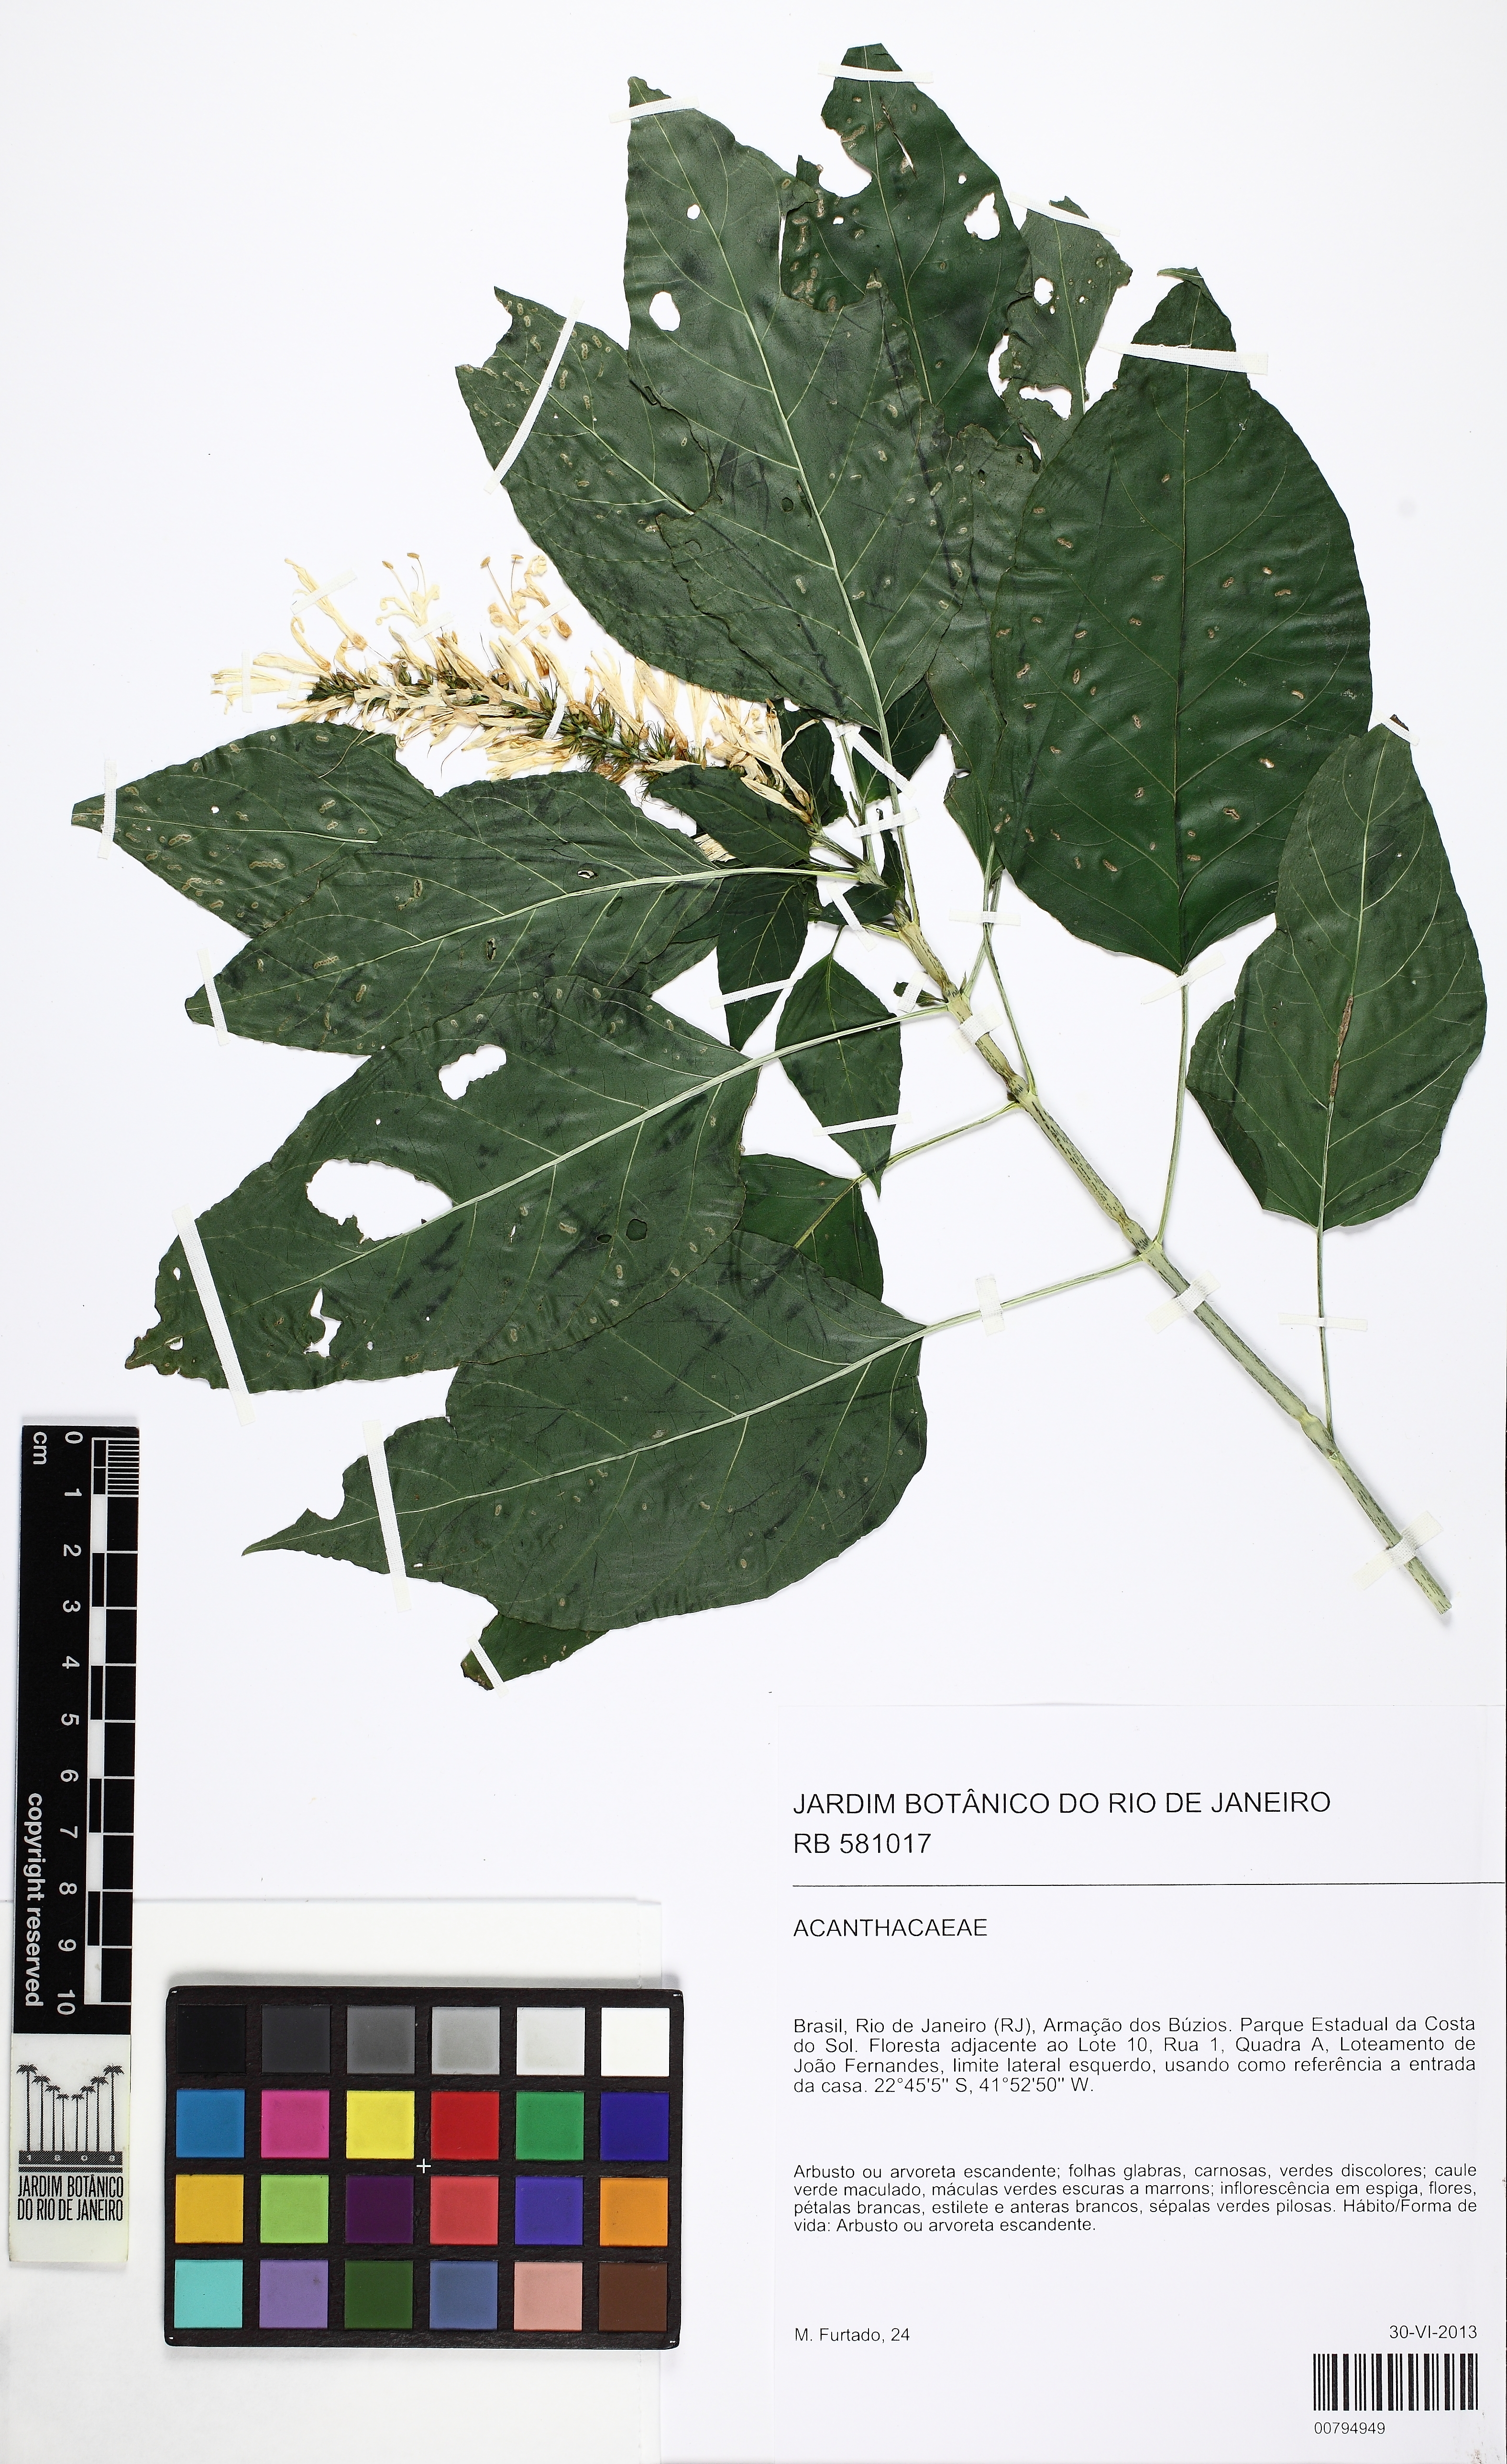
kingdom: Plantae
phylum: Tracheophyta
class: Magnoliopsida
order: Lamiales
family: Acanthaceae
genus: Stenostephanus
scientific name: Stenostephanus
